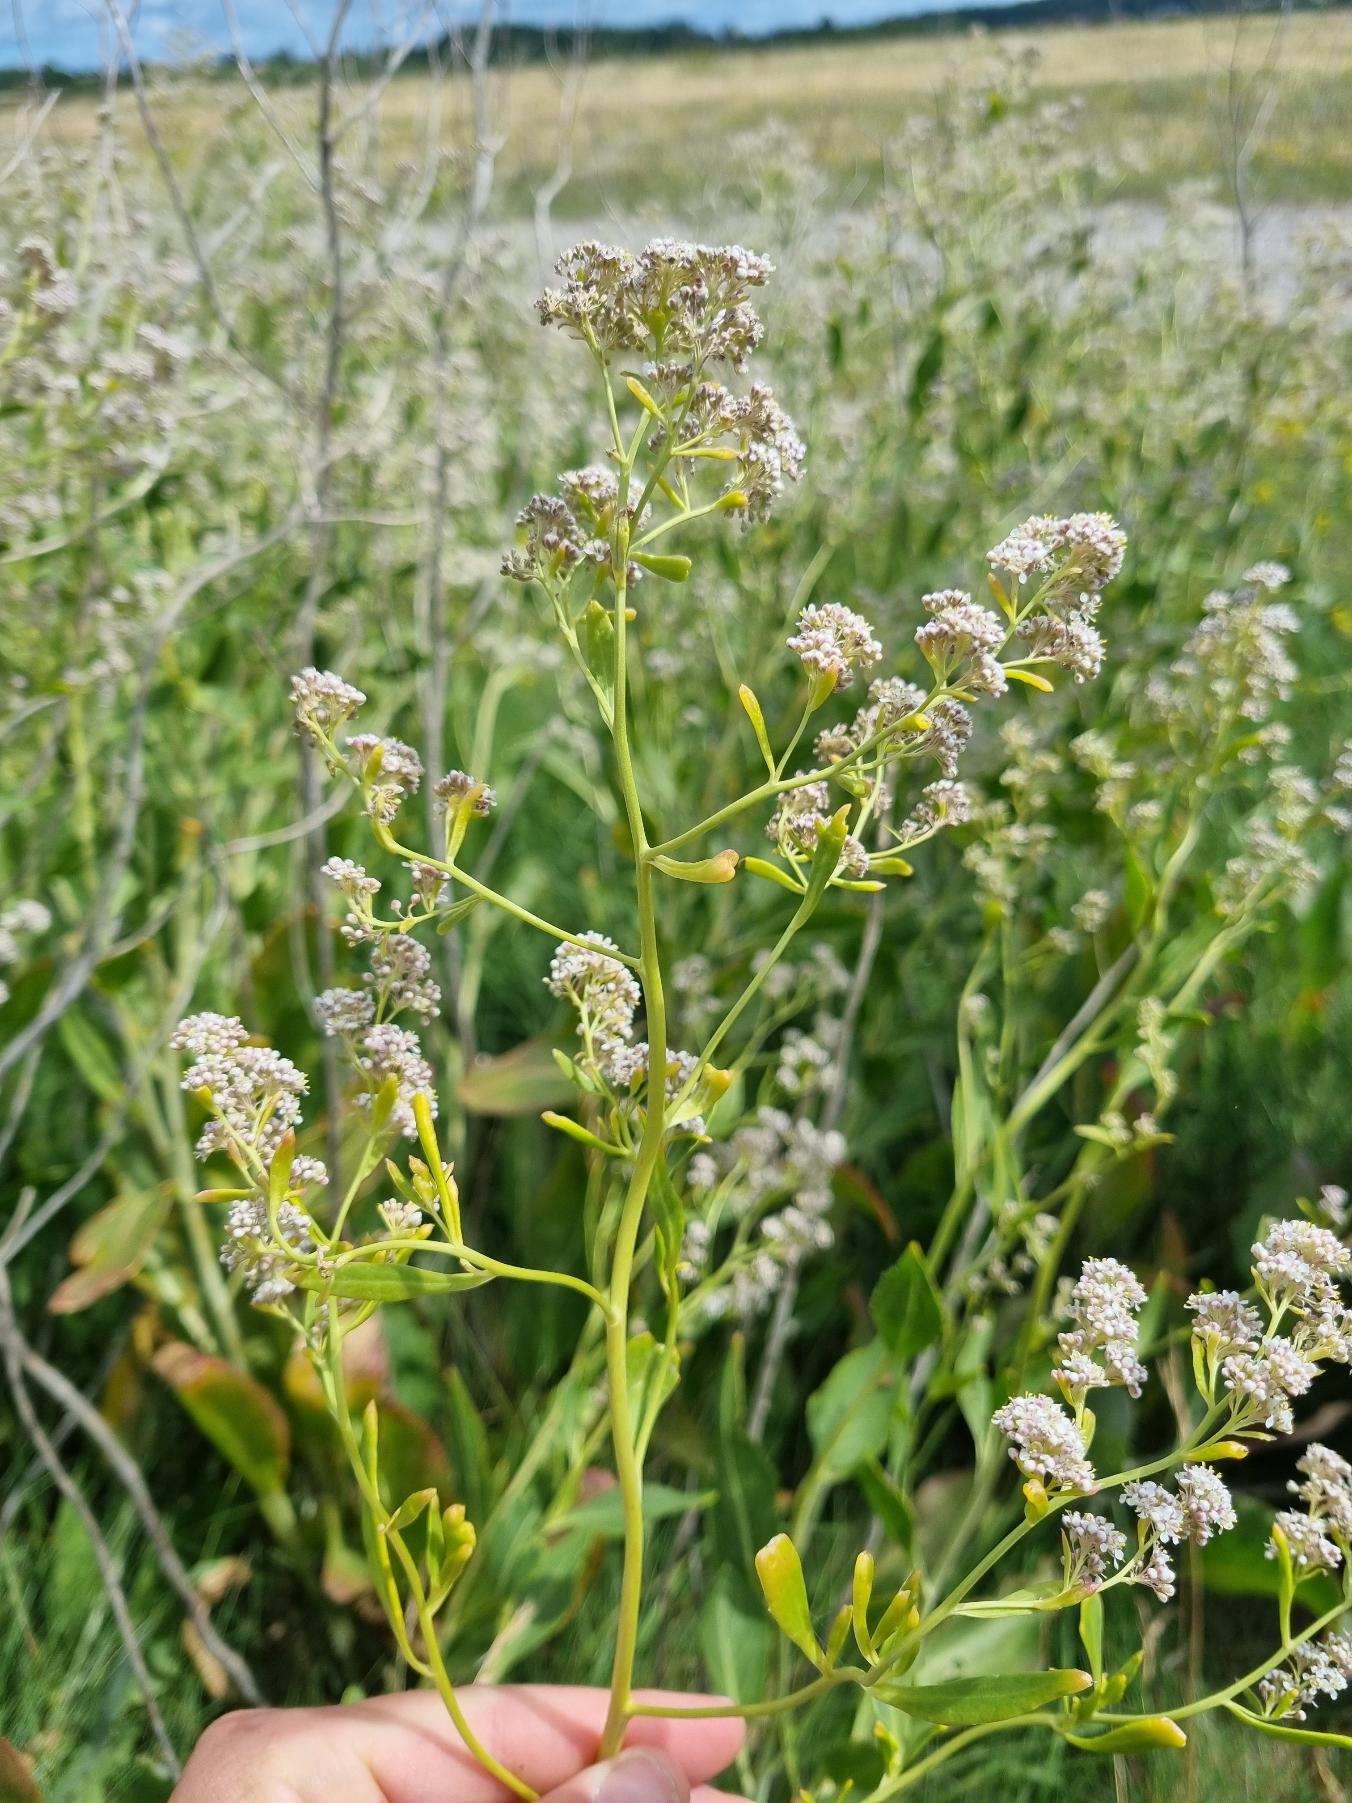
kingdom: Plantae
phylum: Tracheophyta
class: Magnoliopsida
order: Brassicales
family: Brassicaceae
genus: Lepidium
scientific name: Lepidium latifolium
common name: Strand-karse
